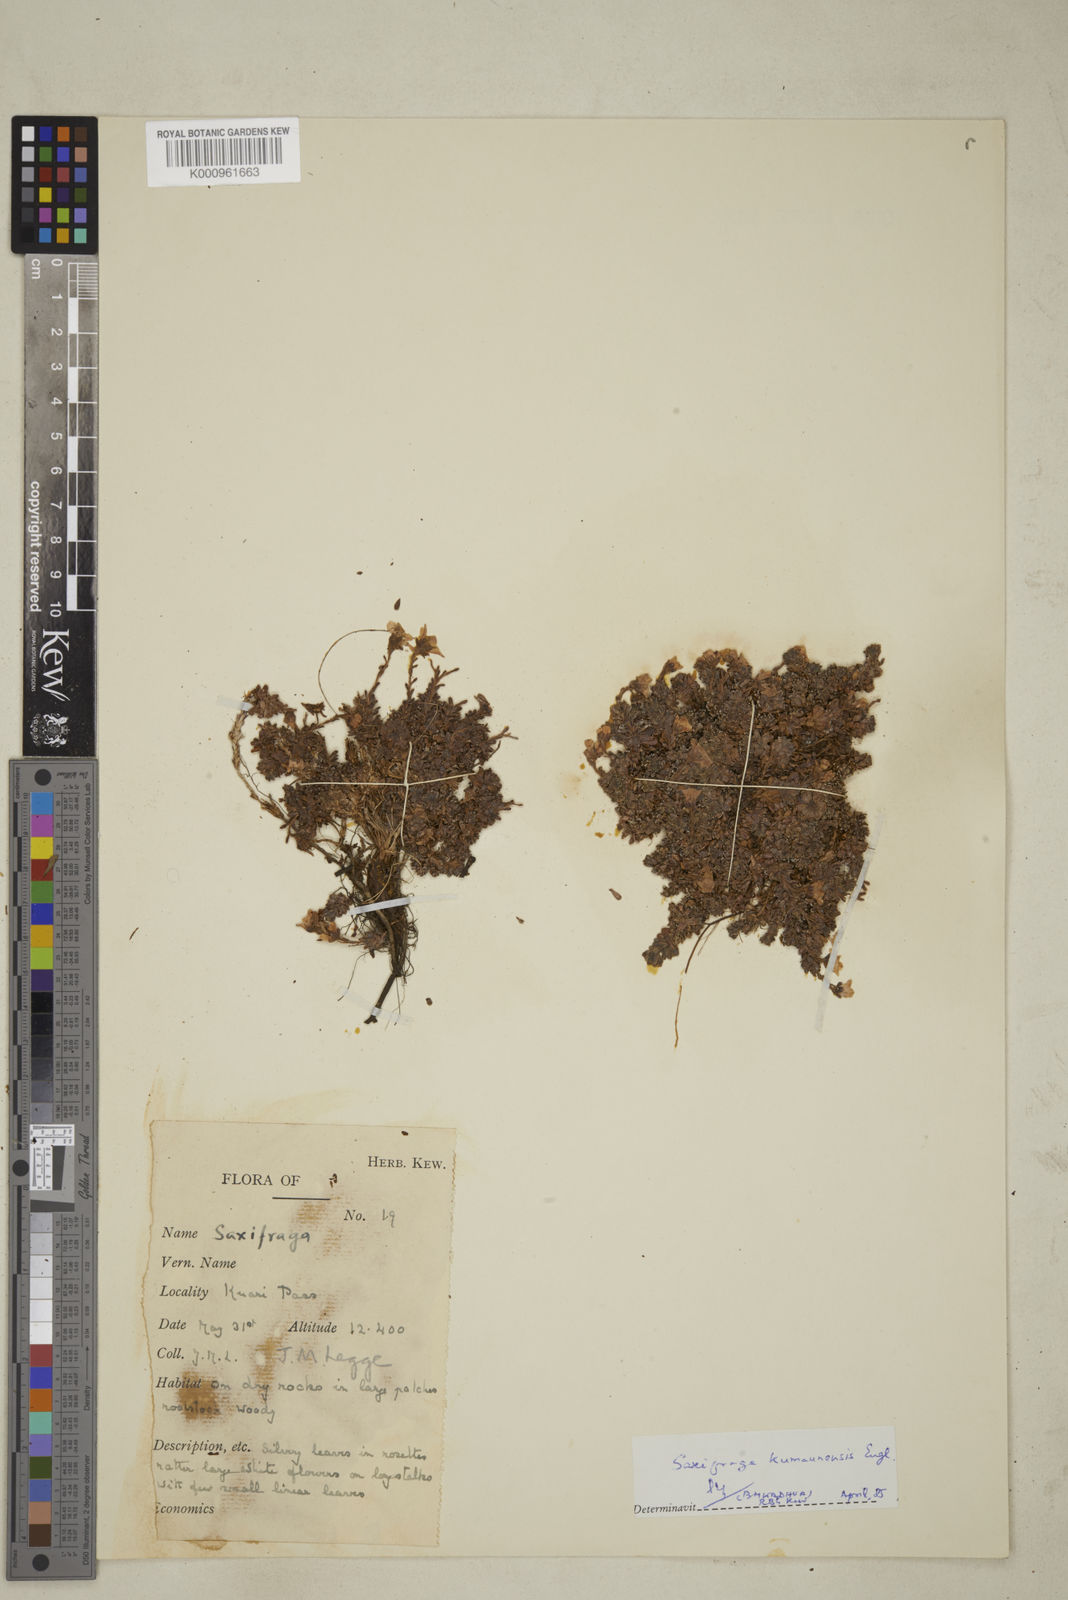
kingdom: Plantae
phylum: Tracheophyta
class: Magnoliopsida
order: Saxifragales
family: Saxifragaceae
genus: Saxifraga
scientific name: Saxifraga kumaunensis
